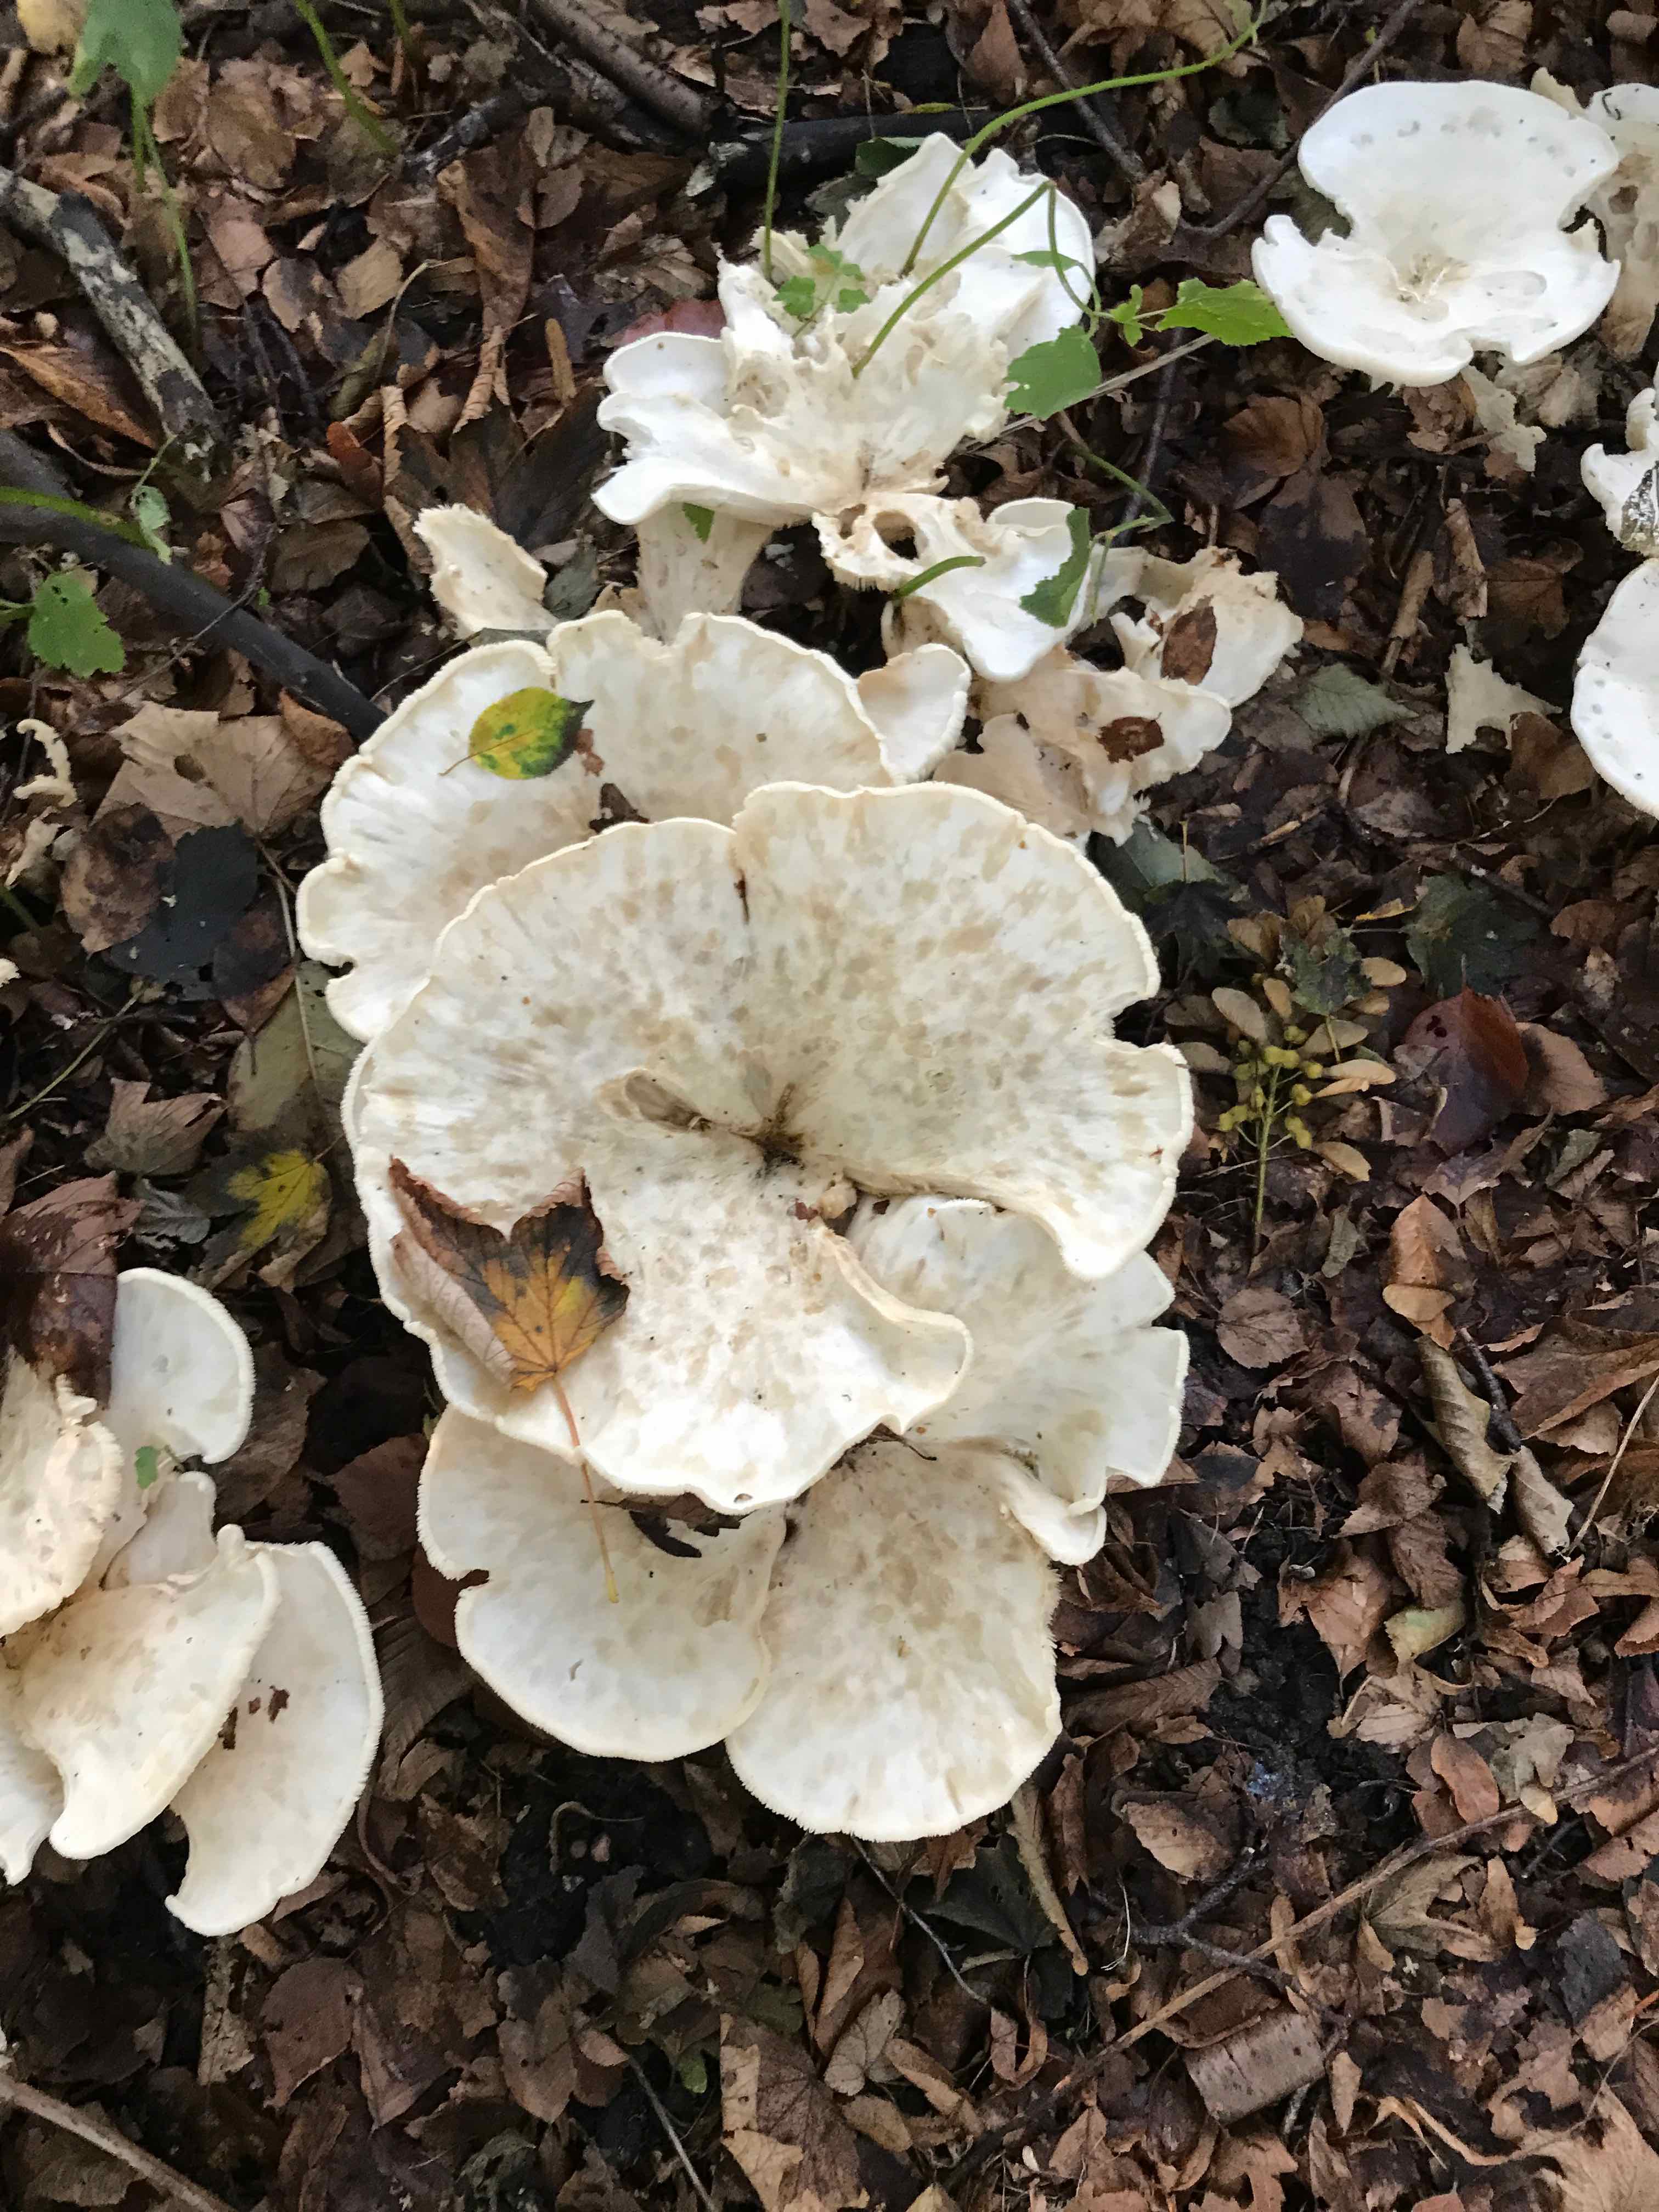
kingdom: Fungi
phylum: Basidiomycota
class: Agaricomycetes
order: Agaricales
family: Tricholomataceae
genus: Aspropaxillus
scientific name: Aspropaxillus giganteus
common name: kæmpe-tragtridderhat
